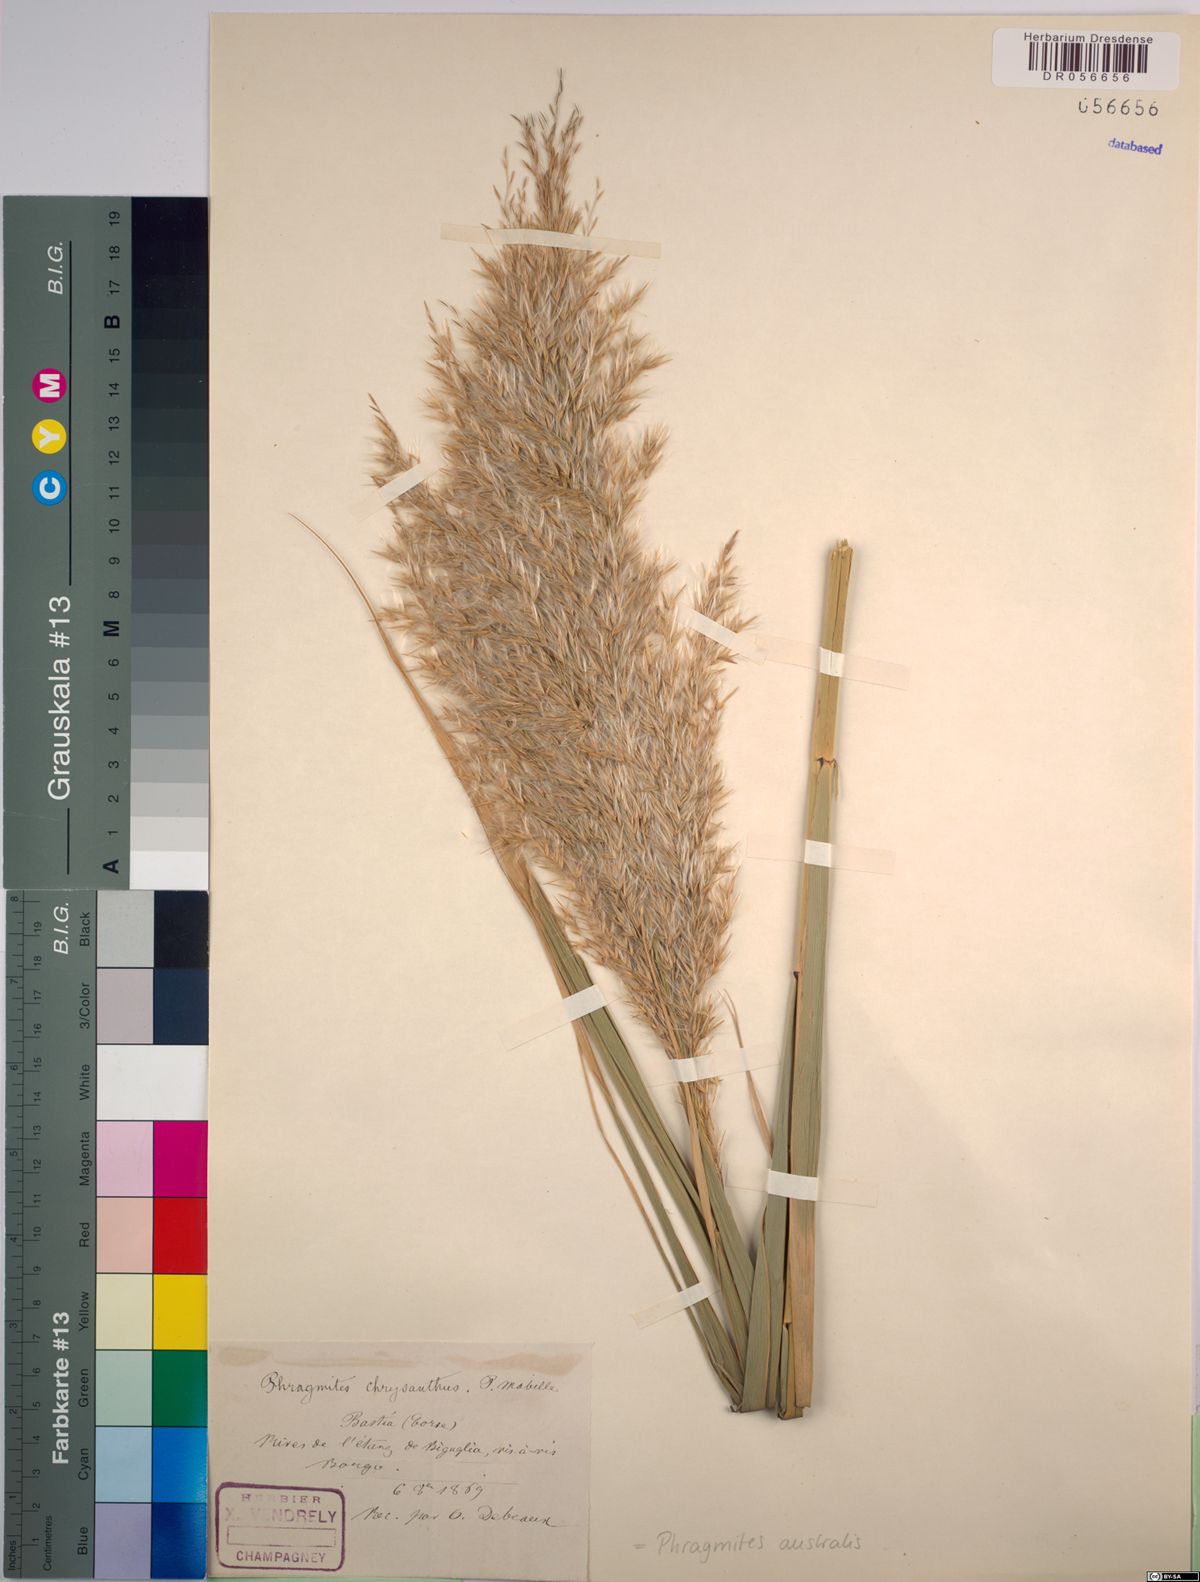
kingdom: Plantae
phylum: Tracheophyta
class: Liliopsida
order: Poales
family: Poaceae
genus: Phragmites
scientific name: Phragmites australis
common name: Common reed
